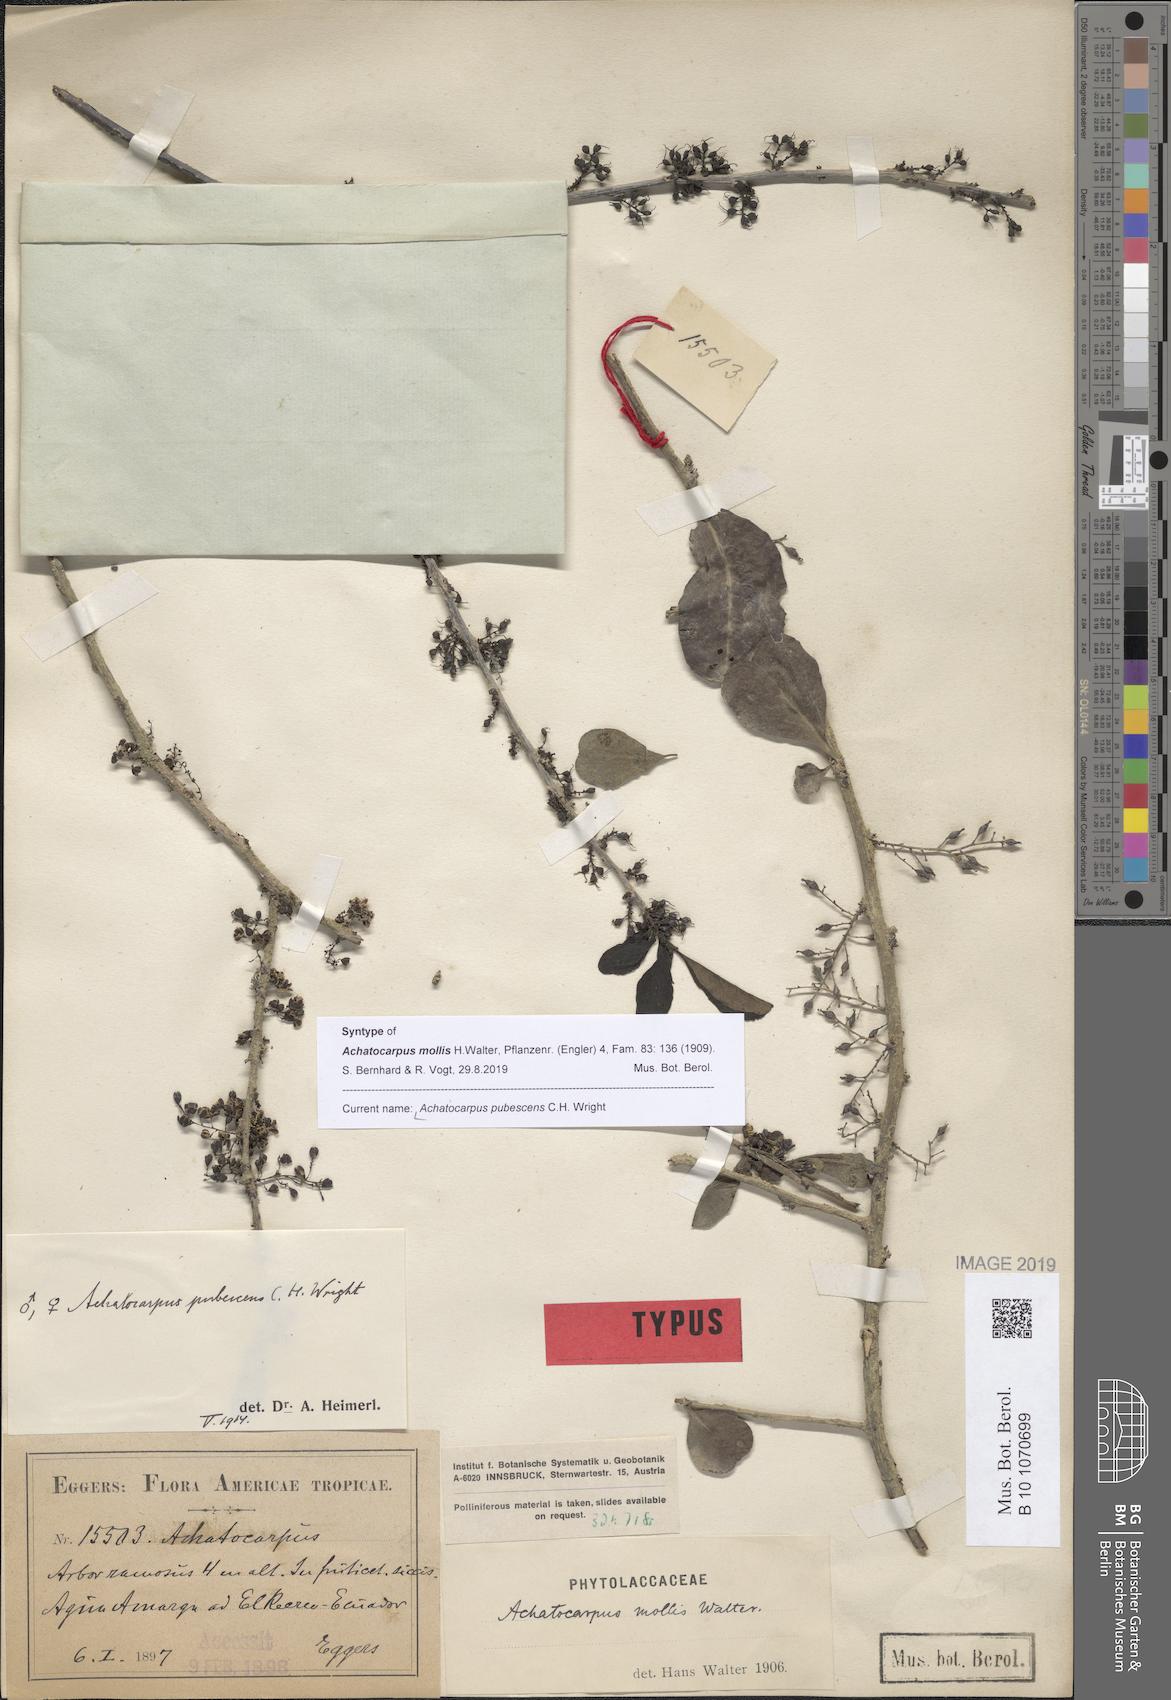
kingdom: Plantae
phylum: Tracheophyta
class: Magnoliopsida
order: Caryophyllales
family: Achatocarpaceae
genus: Achatocarpus
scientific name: Achatocarpus pubescens
